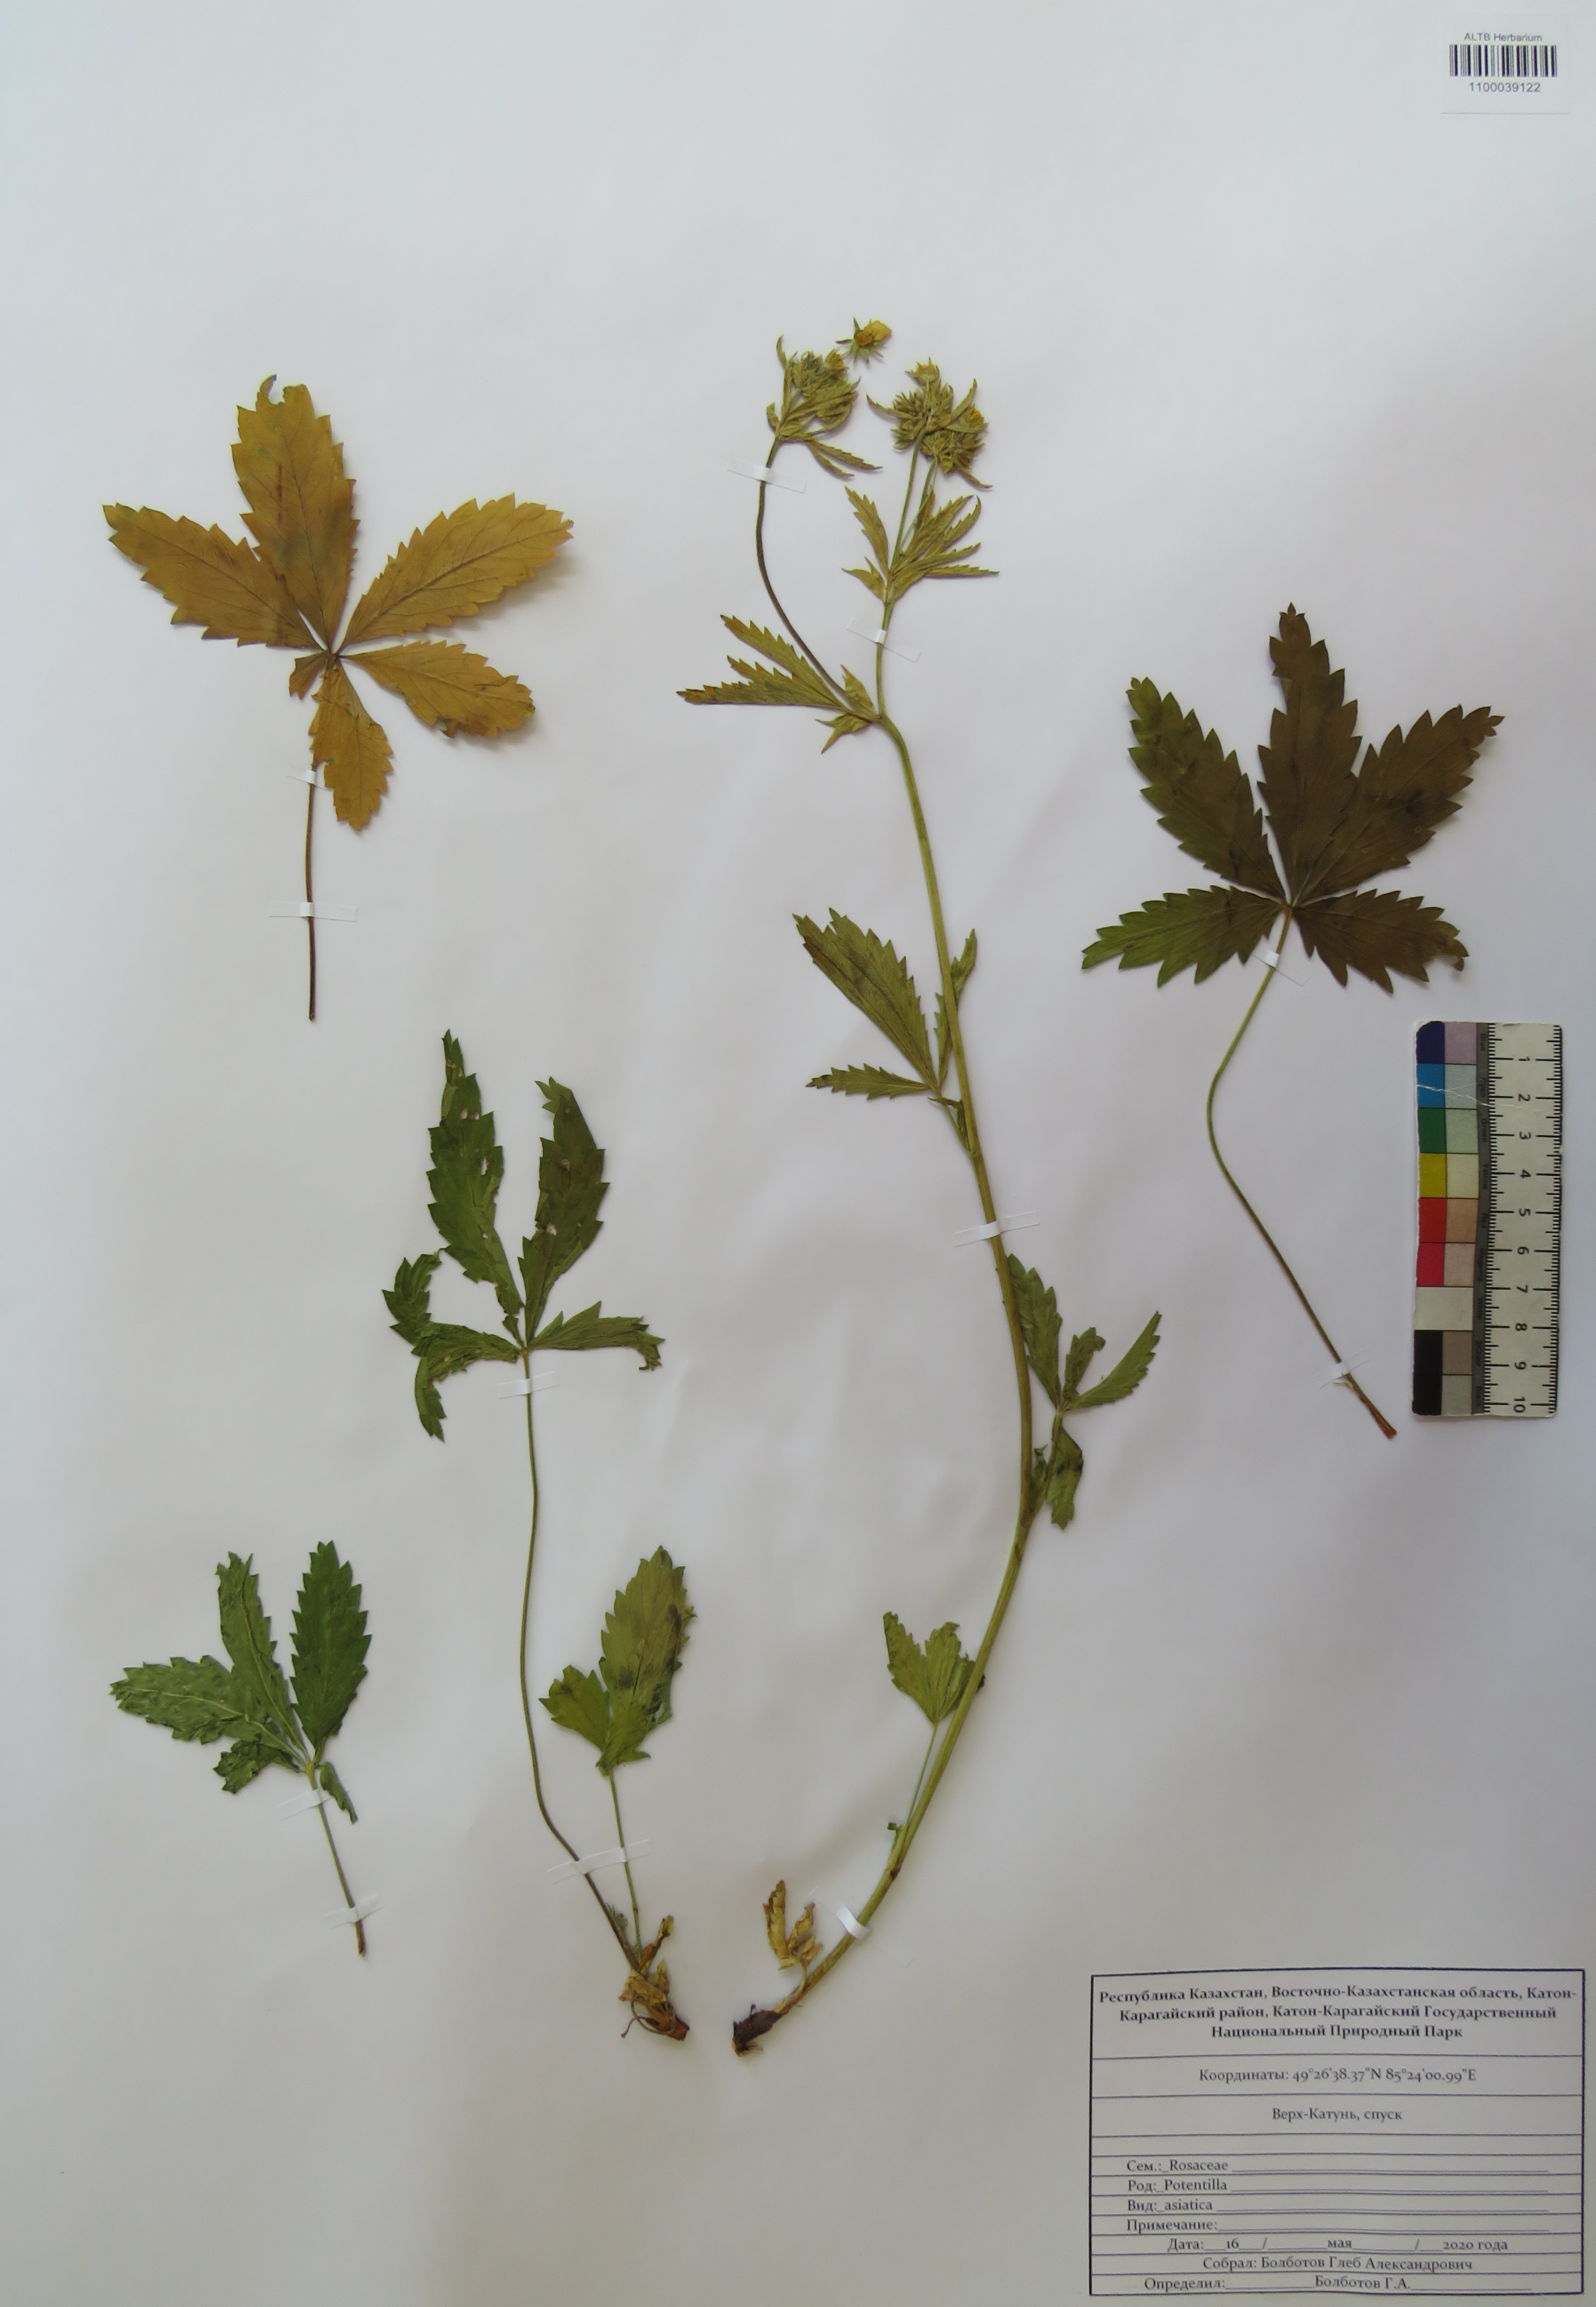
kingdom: Plantae
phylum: Tracheophyta
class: Magnoliopsida
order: Rosales
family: Rosaceae
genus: Potentilla
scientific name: Potentilla asiatica
